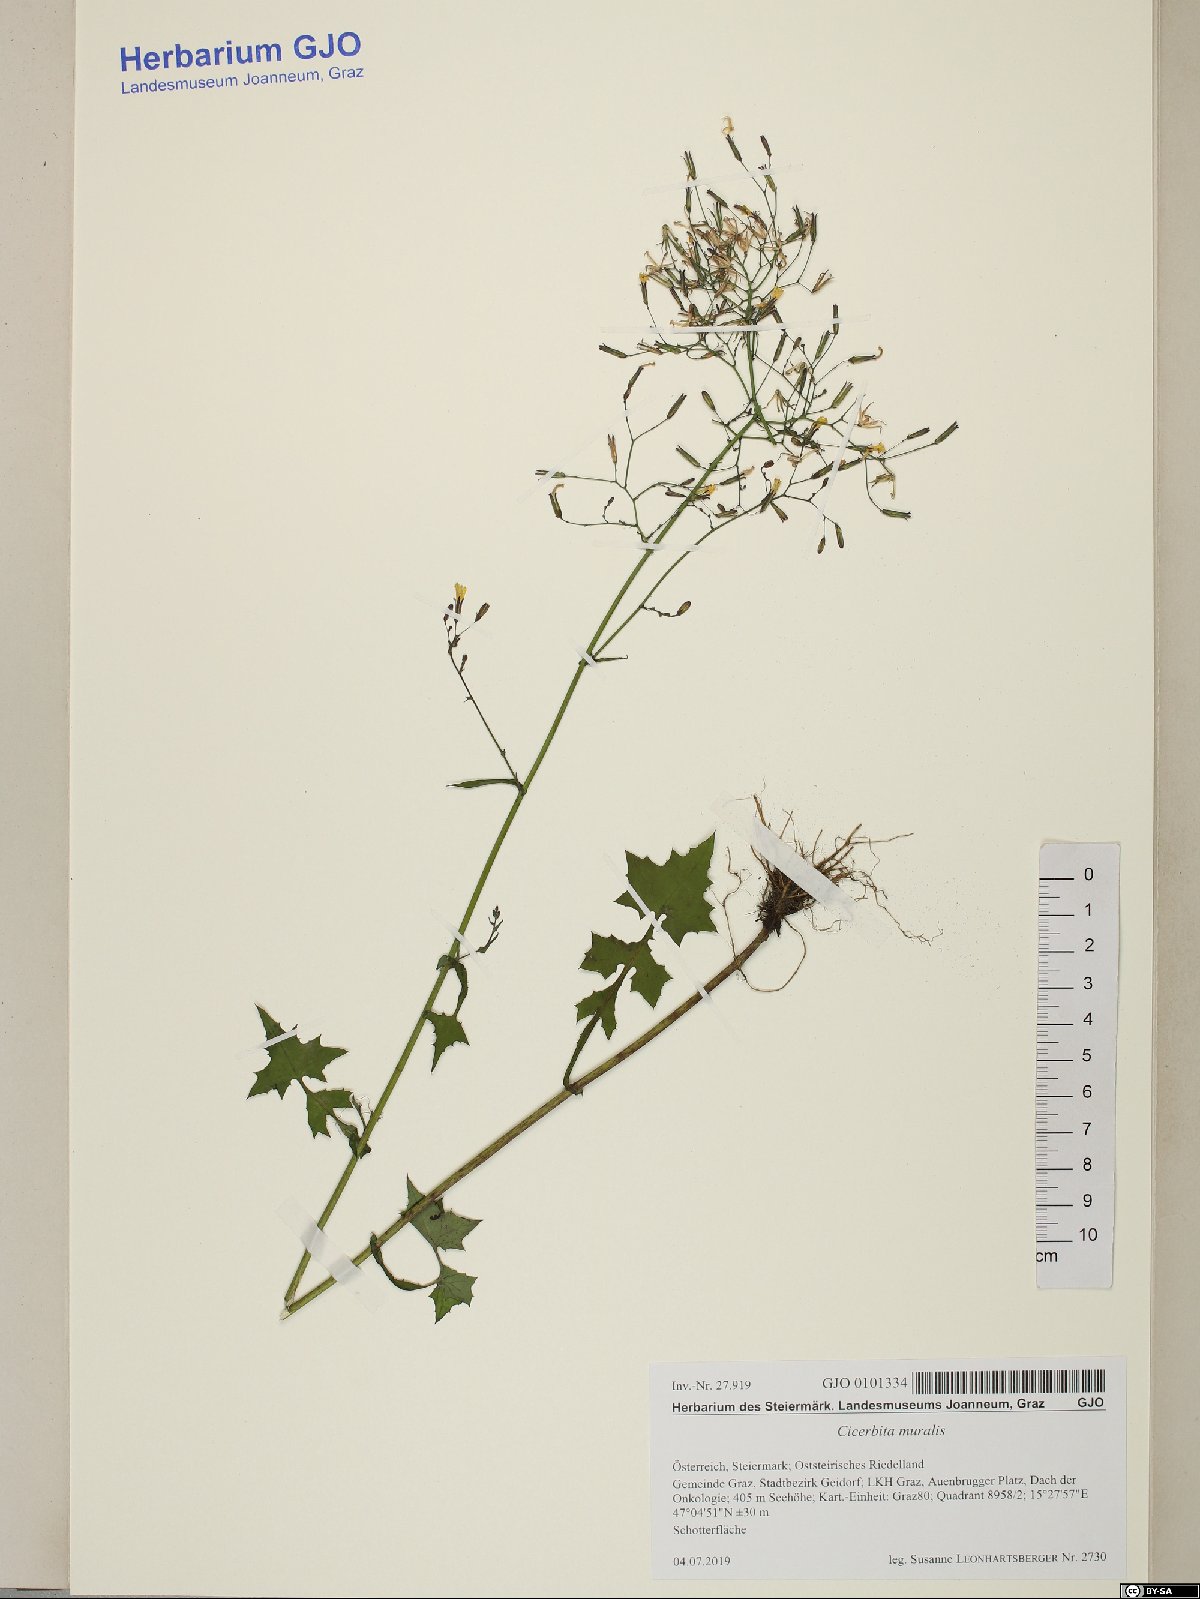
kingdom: Plantae
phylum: Tracheophyta
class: Magnoliopsida
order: Asterales
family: Asteraceae
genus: Mycelis
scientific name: Mycelis muralis
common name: Wall lettuce
